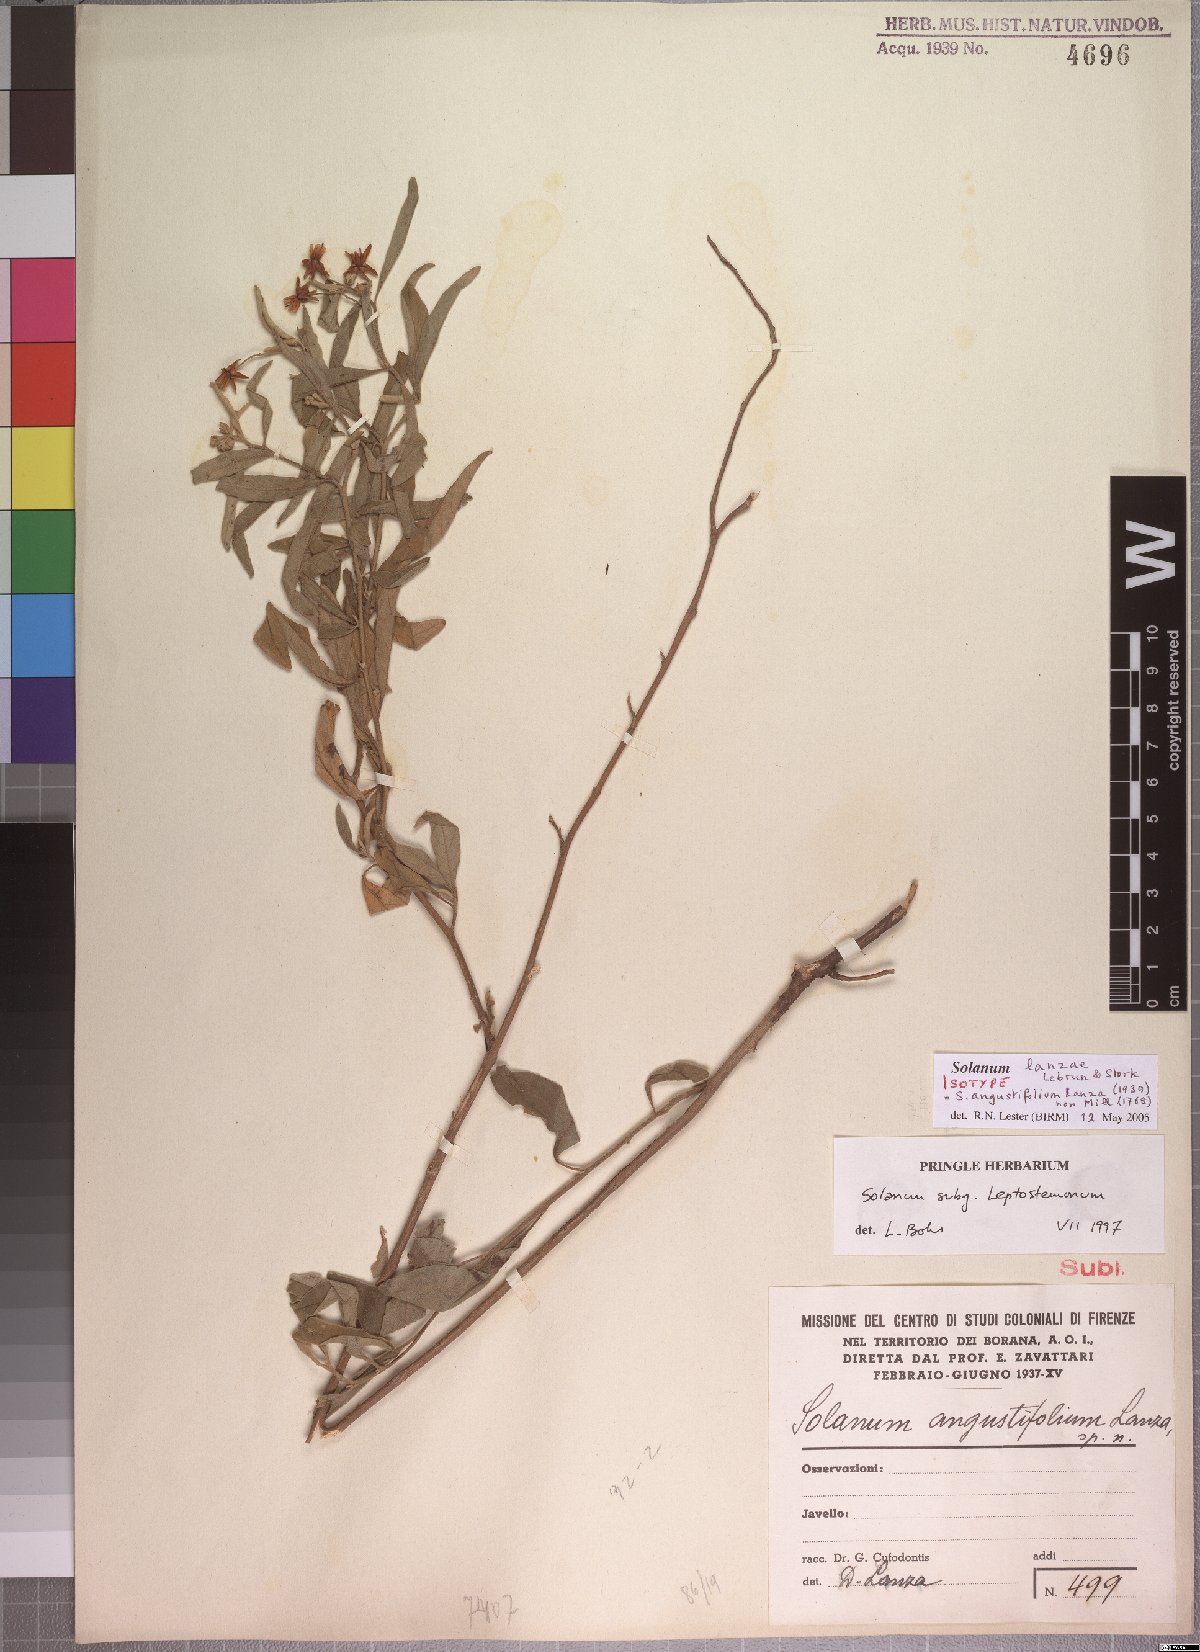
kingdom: Plantae
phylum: Tracheophyta
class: Magnoliopsida
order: Solanales
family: Solanaceae
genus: Solanum
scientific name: Solanum lanzae
